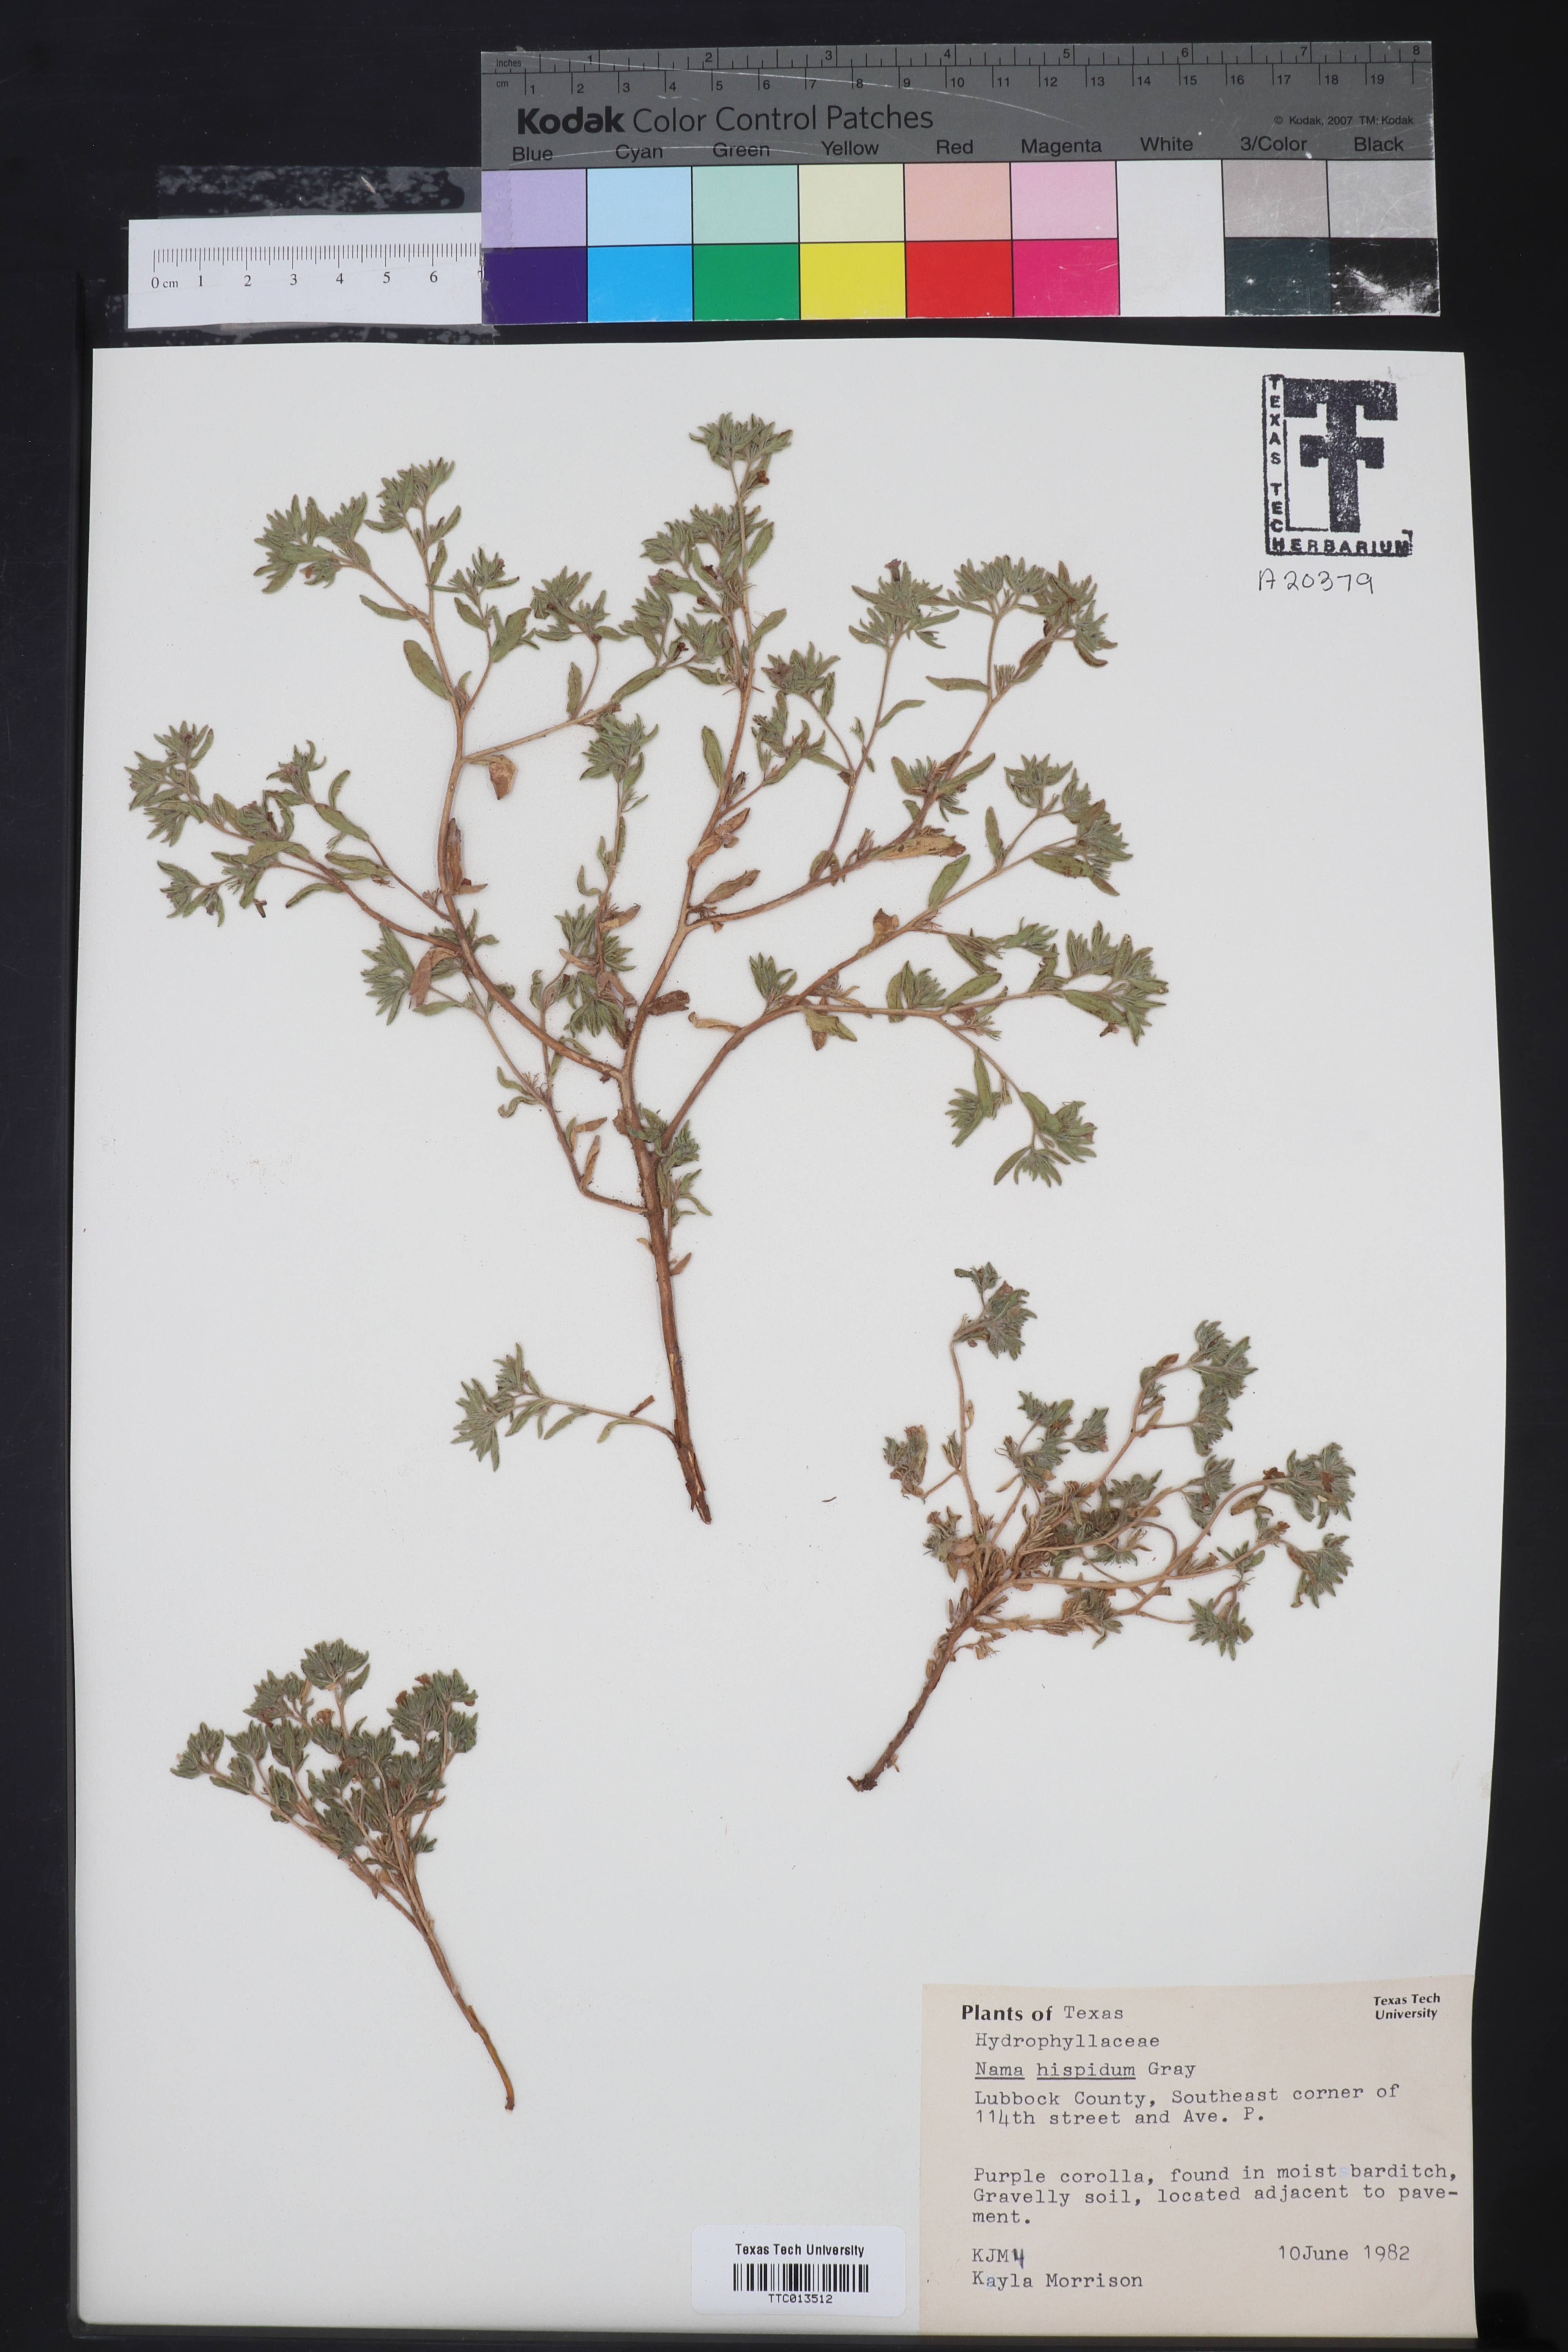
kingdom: Plantae
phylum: Tracheophyta
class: Magnoliopsida
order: Boraginales
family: Namaceae
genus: Nama
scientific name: Nama hispida
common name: Bristly nama
